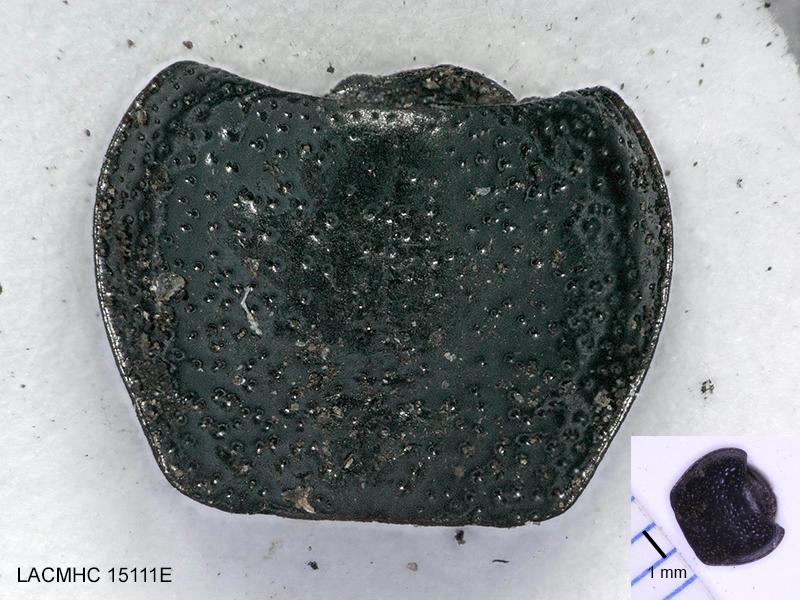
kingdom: Animalia
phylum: Arthropoda
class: Insecta
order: Coleoptera
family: Carabidae
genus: Dicheirus
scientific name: Dicheirus dilatatus
